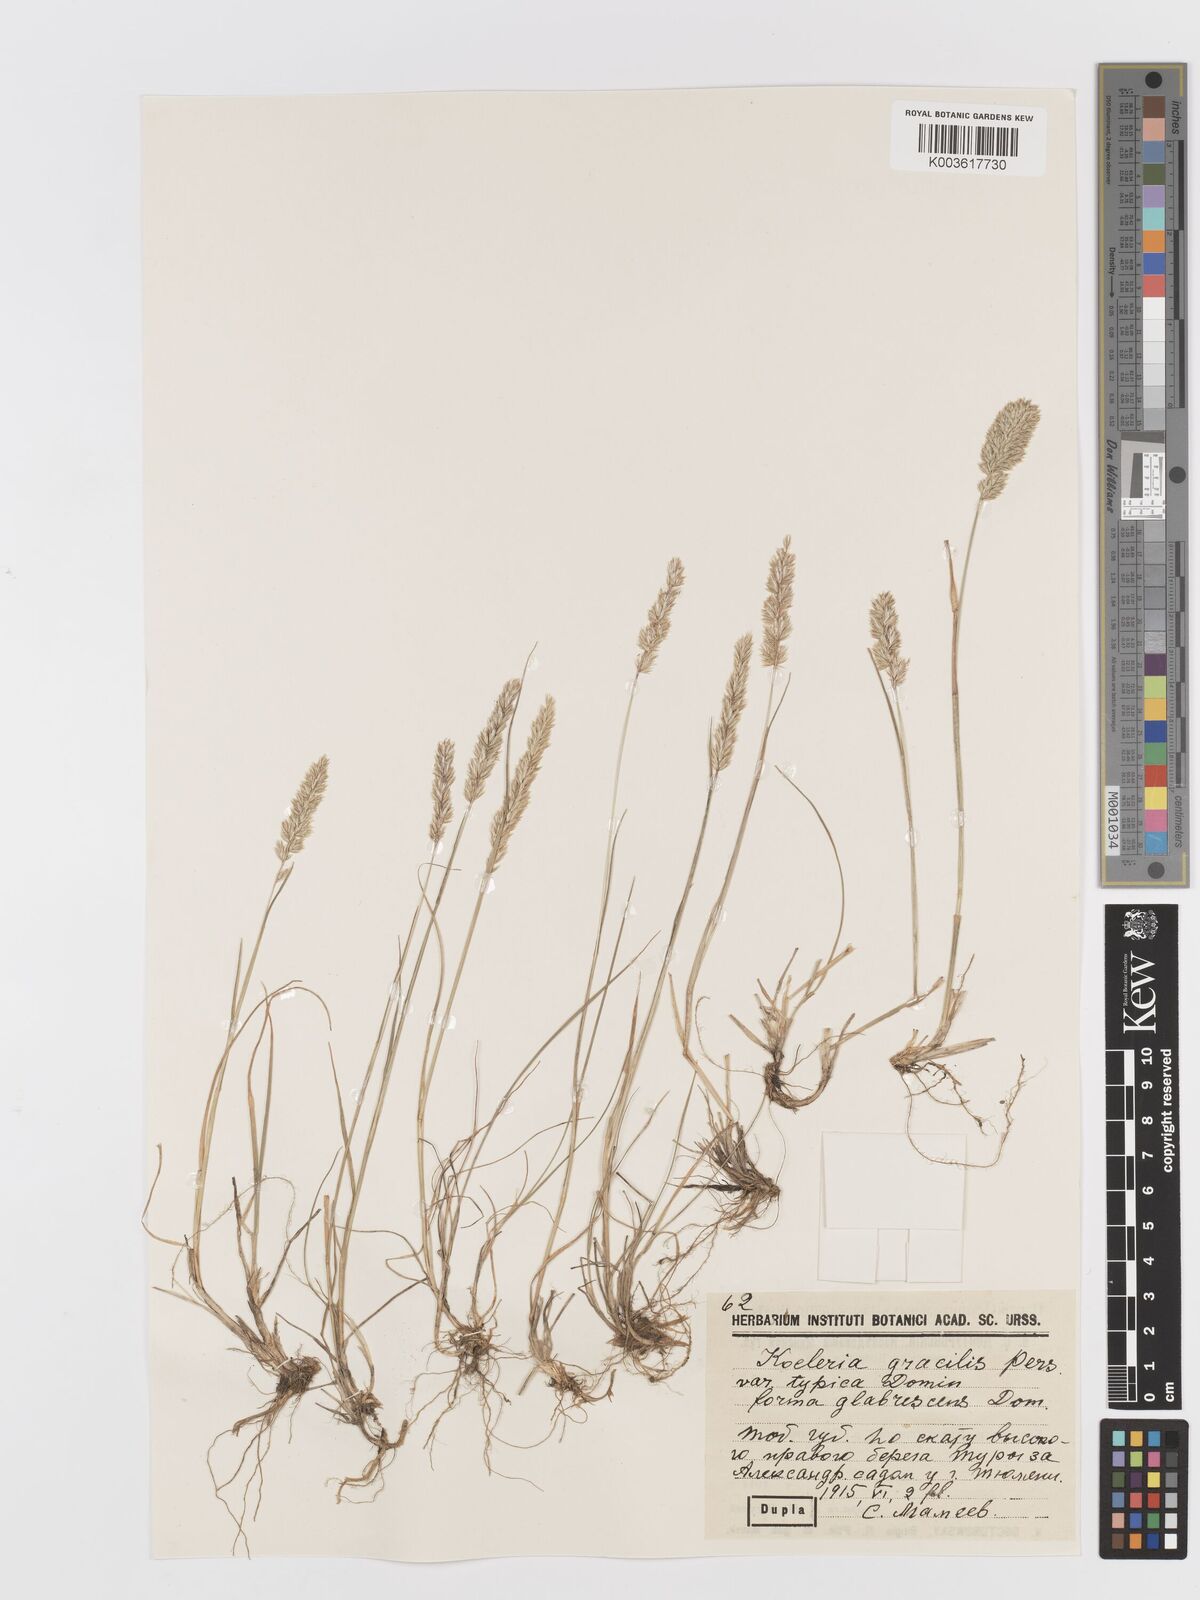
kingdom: Plantae
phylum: Tracheophyta
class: Liliopsida
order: Poales
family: Poaceae
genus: Koeleria
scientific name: Koeleria splendens
